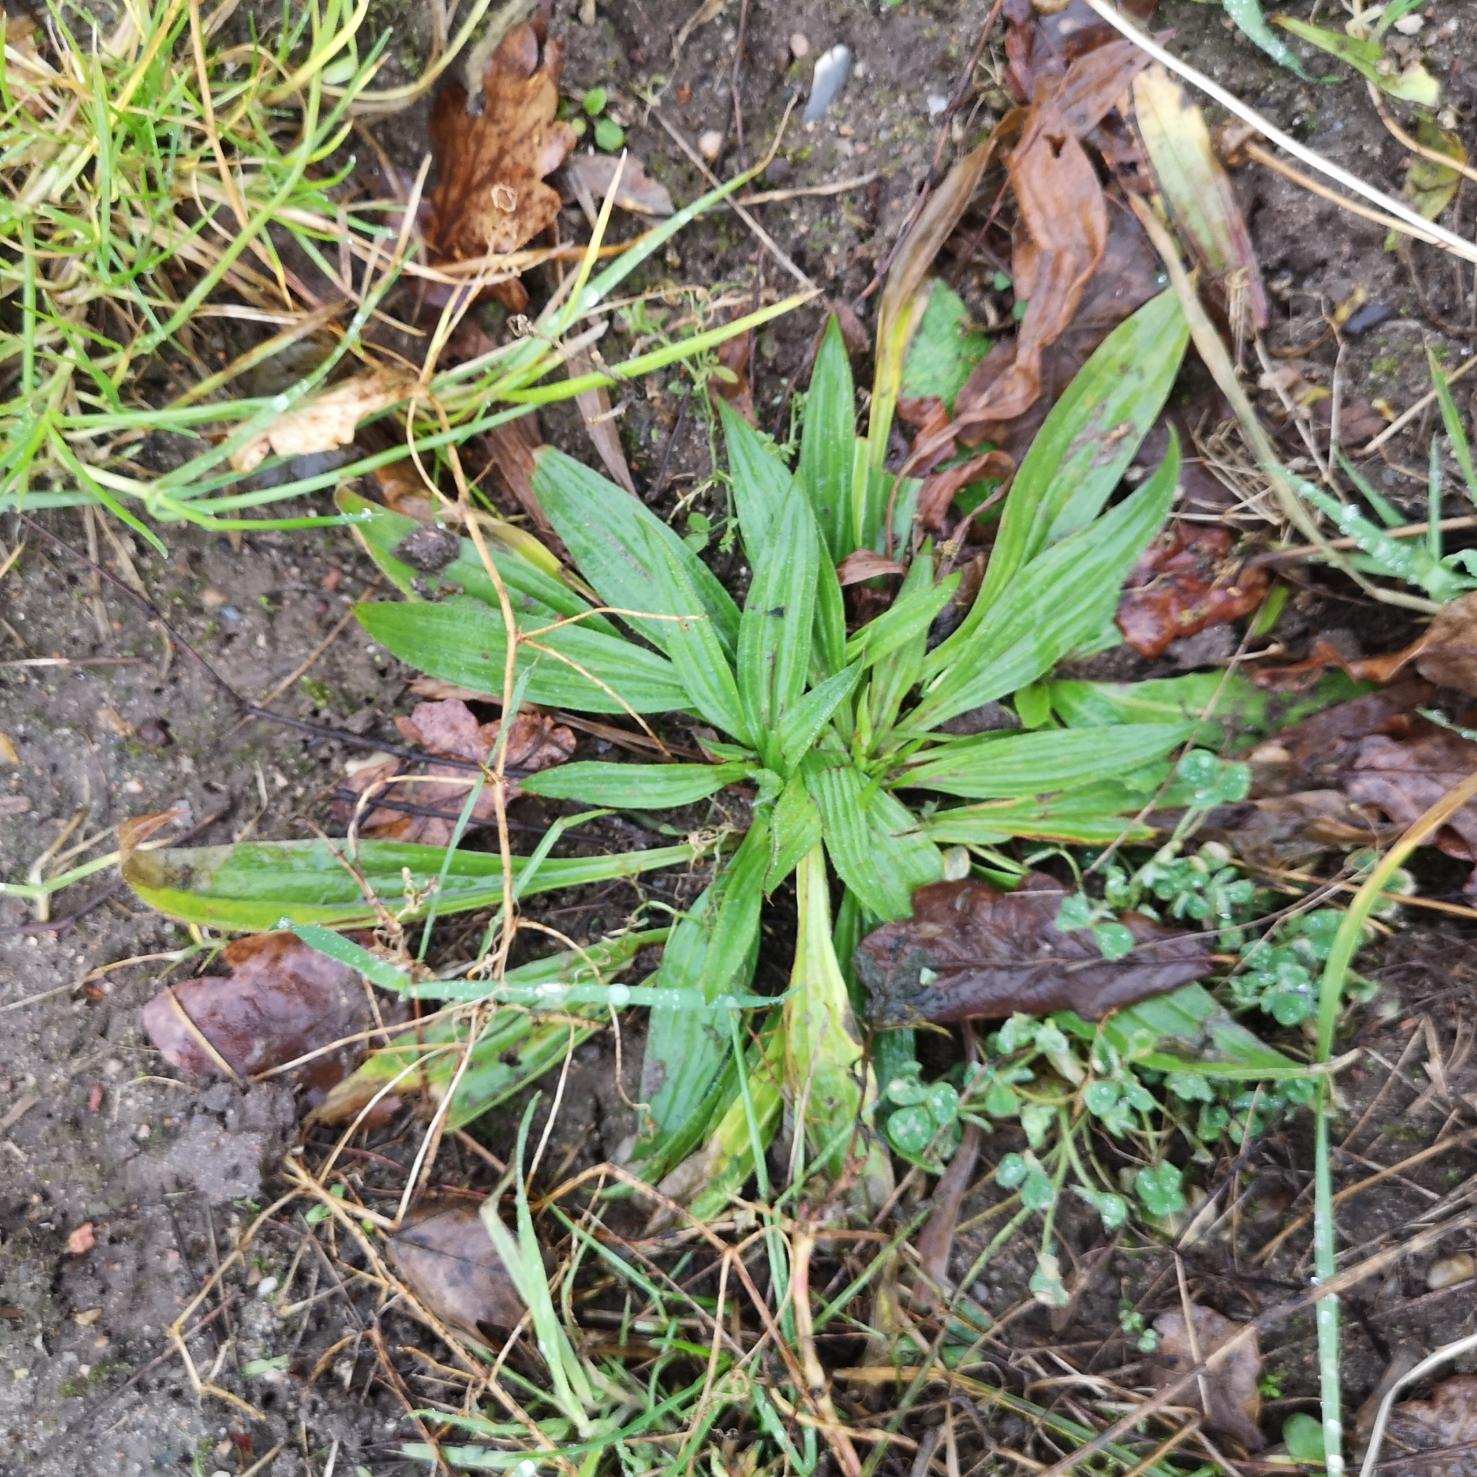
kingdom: Plantae
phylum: Tracheophyta
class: Magnoliopsida
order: Lamiales
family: Plantaginaceae
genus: Plantago
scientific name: Plantago lanceolata
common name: Lancet-vejbred
